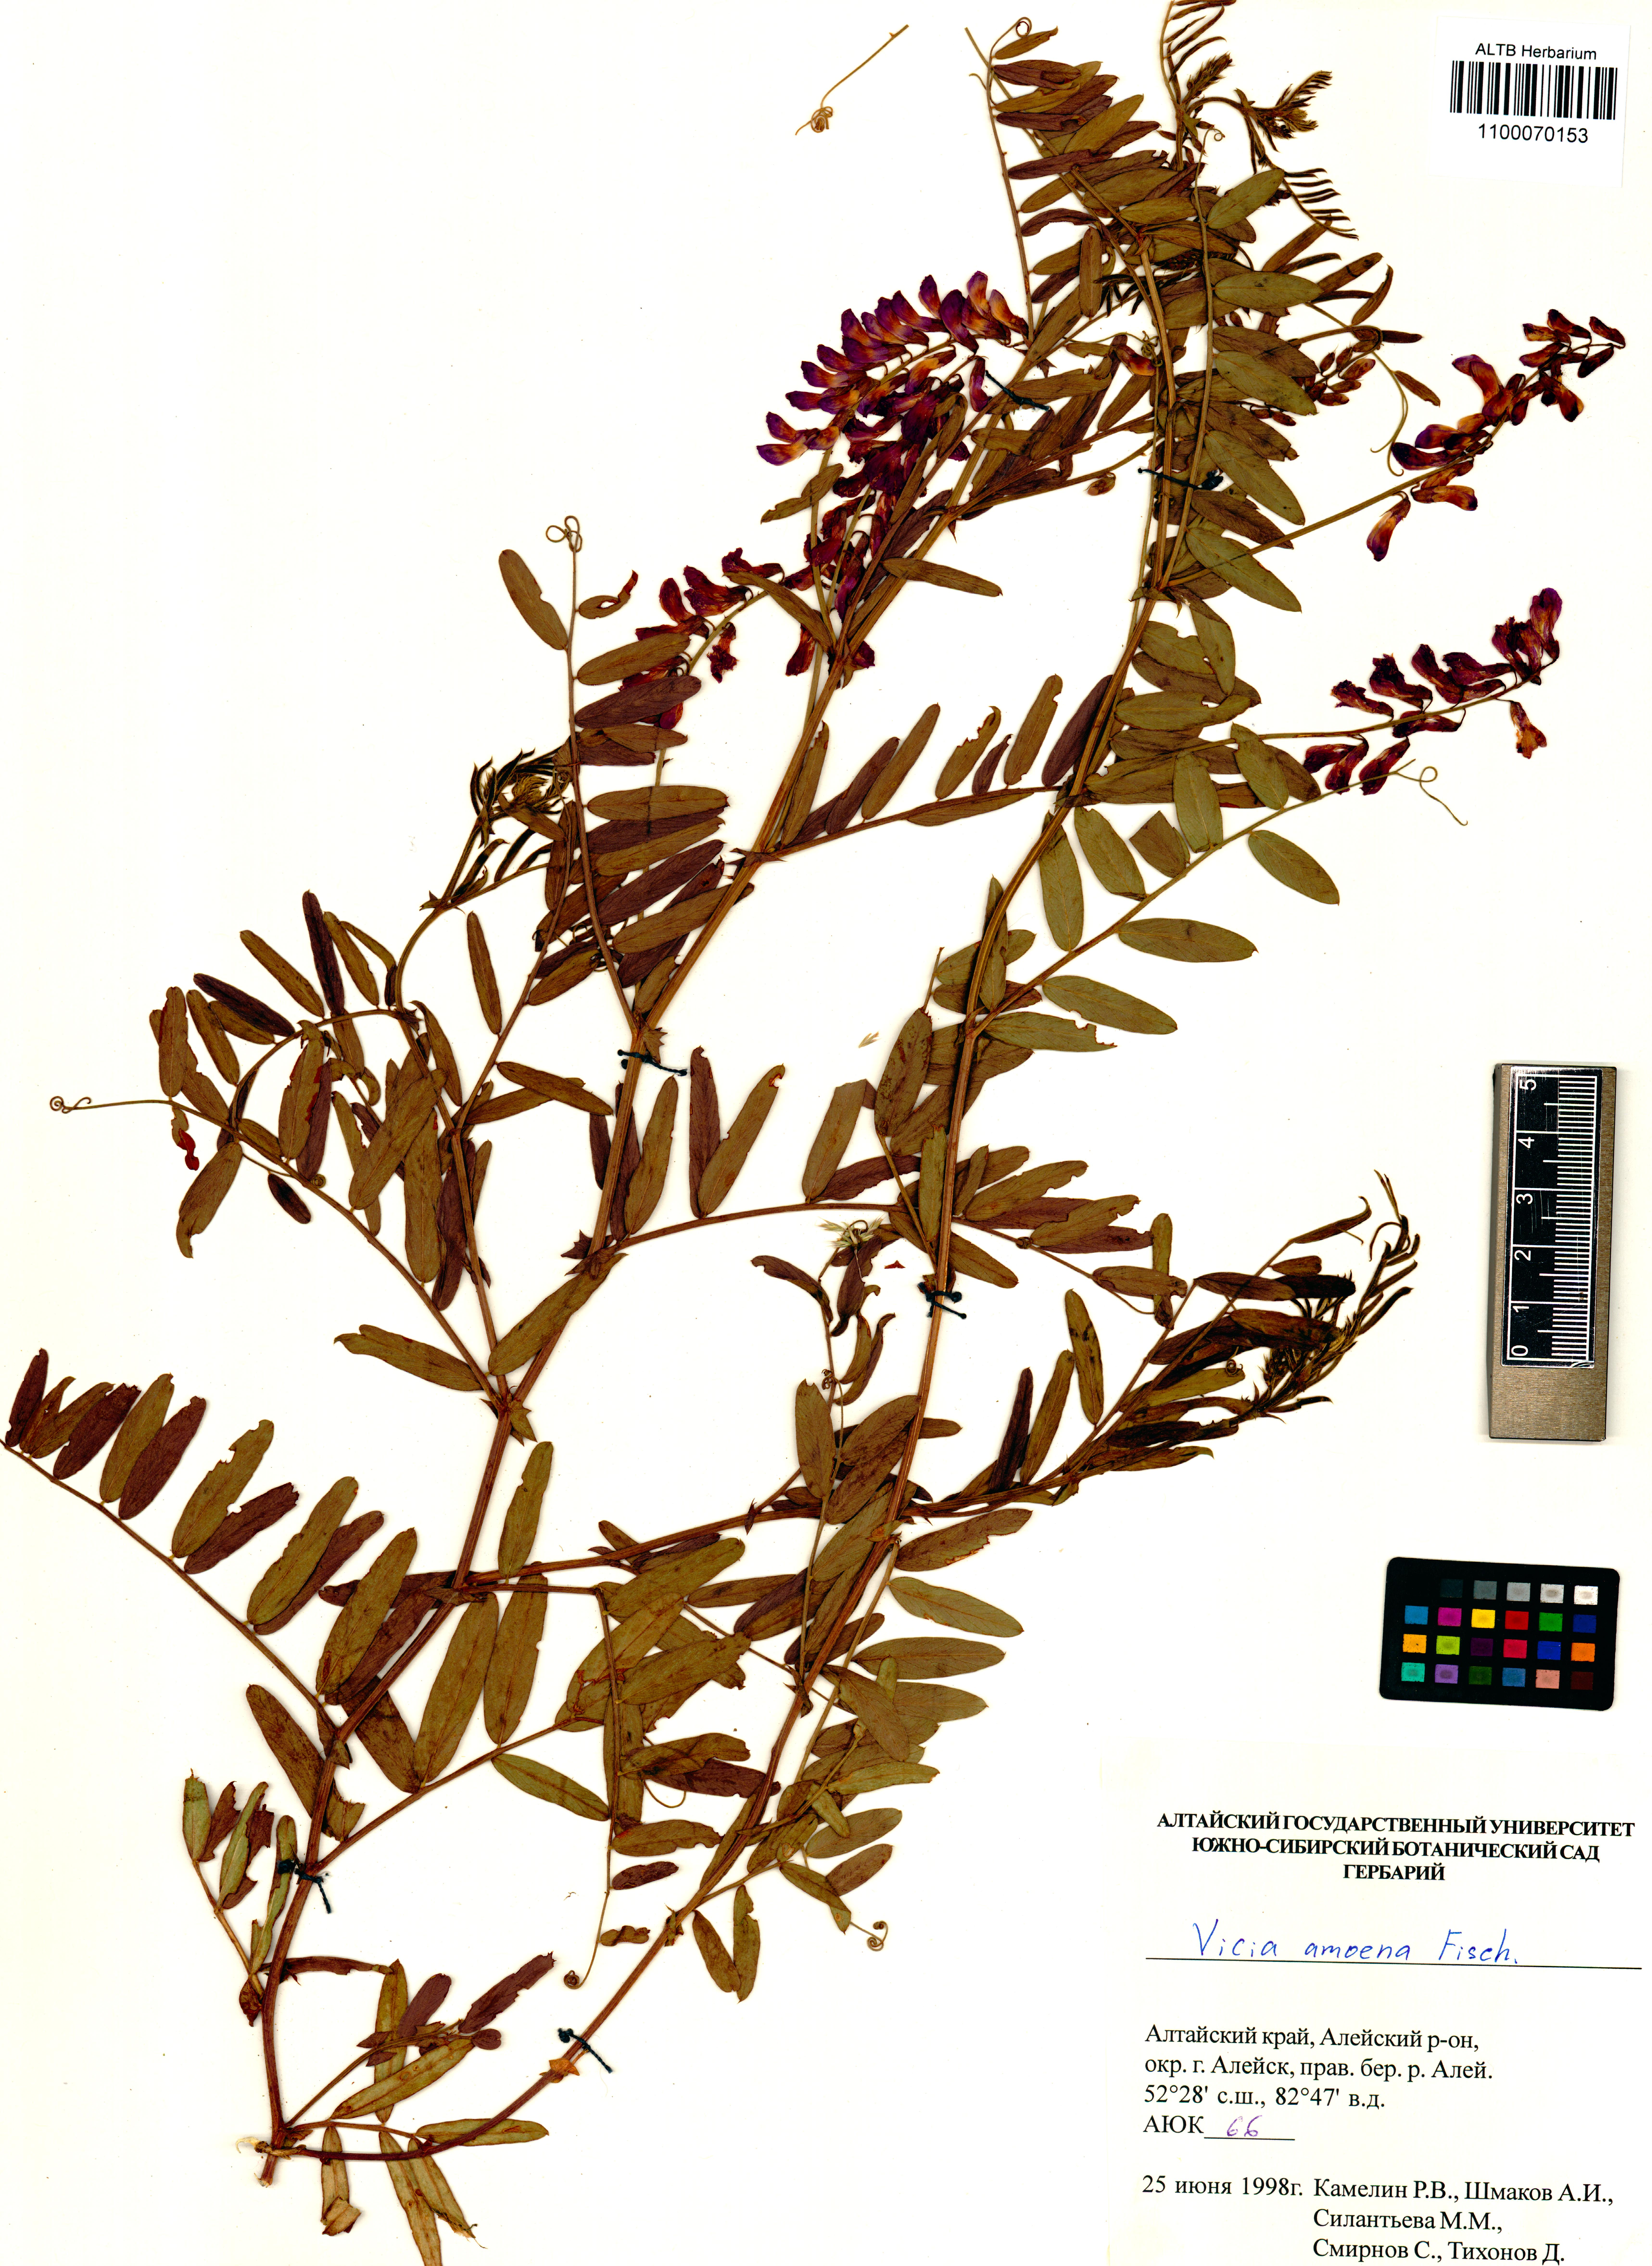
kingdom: Plantae
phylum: Tracheophyta
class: Magnoliopsida
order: Fabales
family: Fabaceae
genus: Vicia
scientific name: Vicia amoena
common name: Cheder ebs
